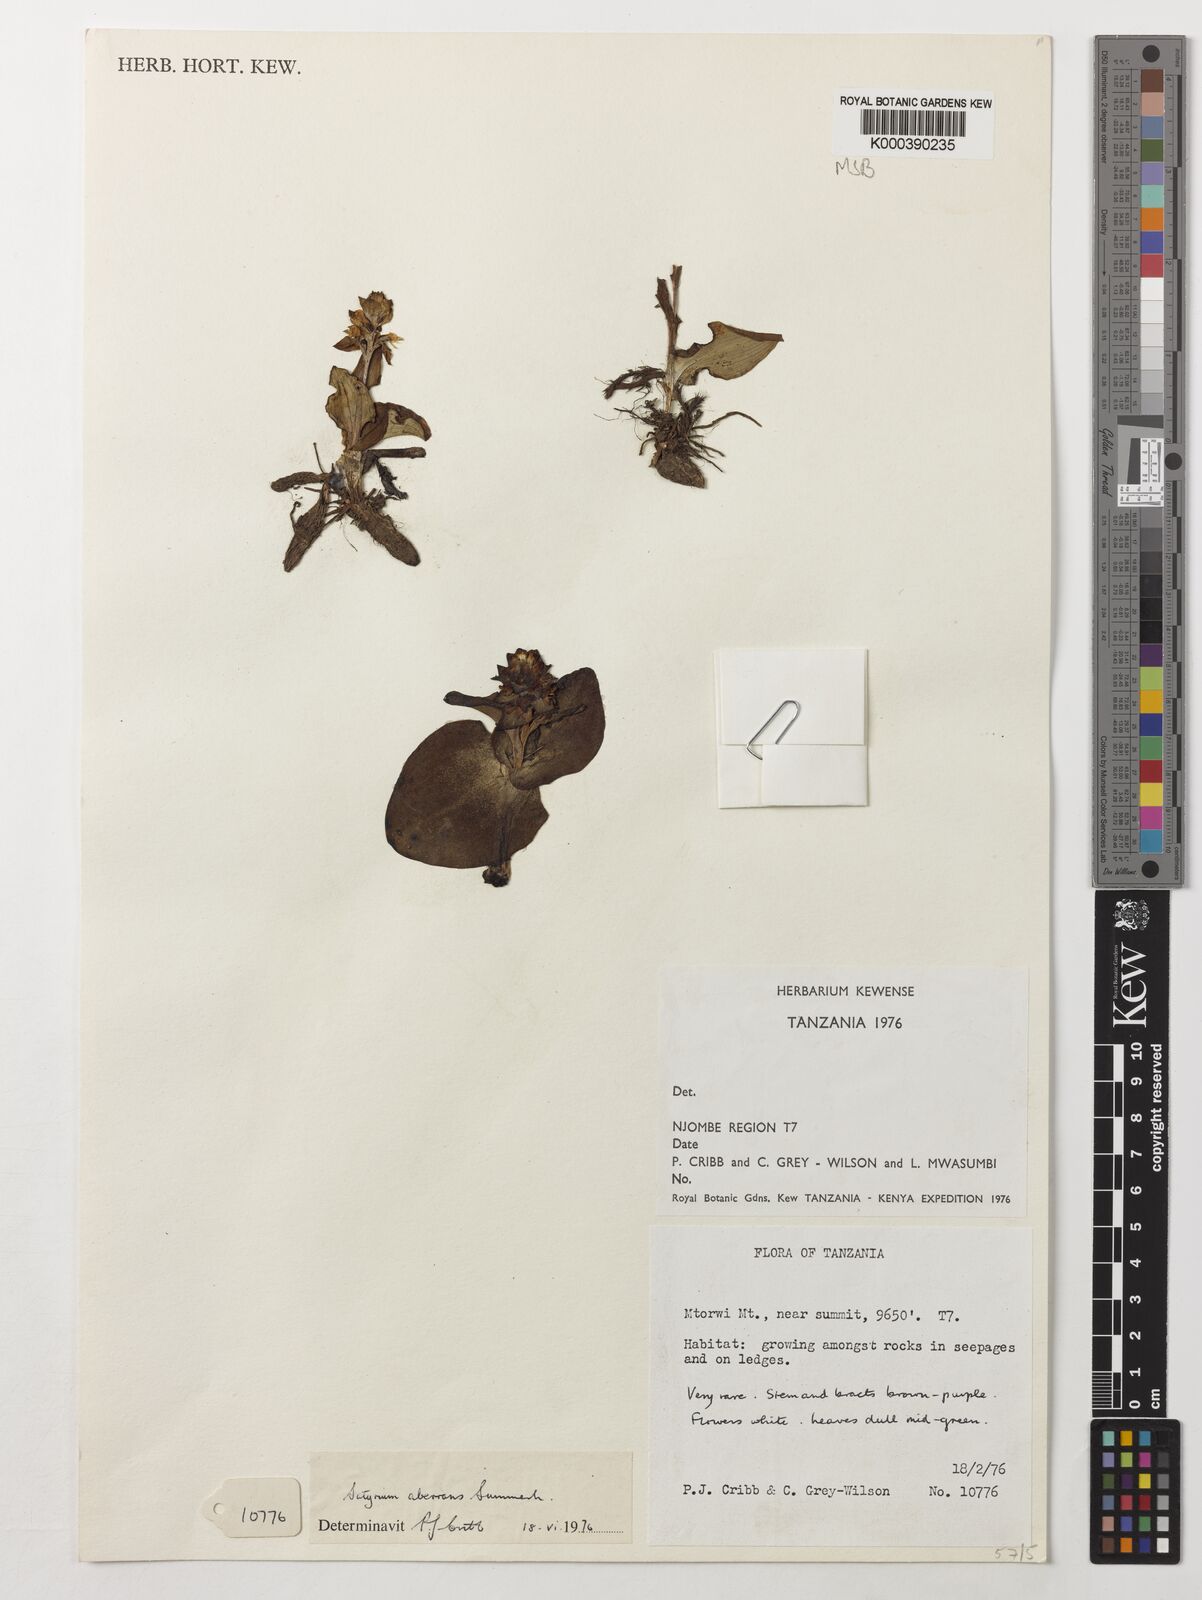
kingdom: Plantae
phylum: Tracheophyta
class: Liliopsida
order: Asparagales
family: Orchidaceae
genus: Satyrium
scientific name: Satyrium aberrans
